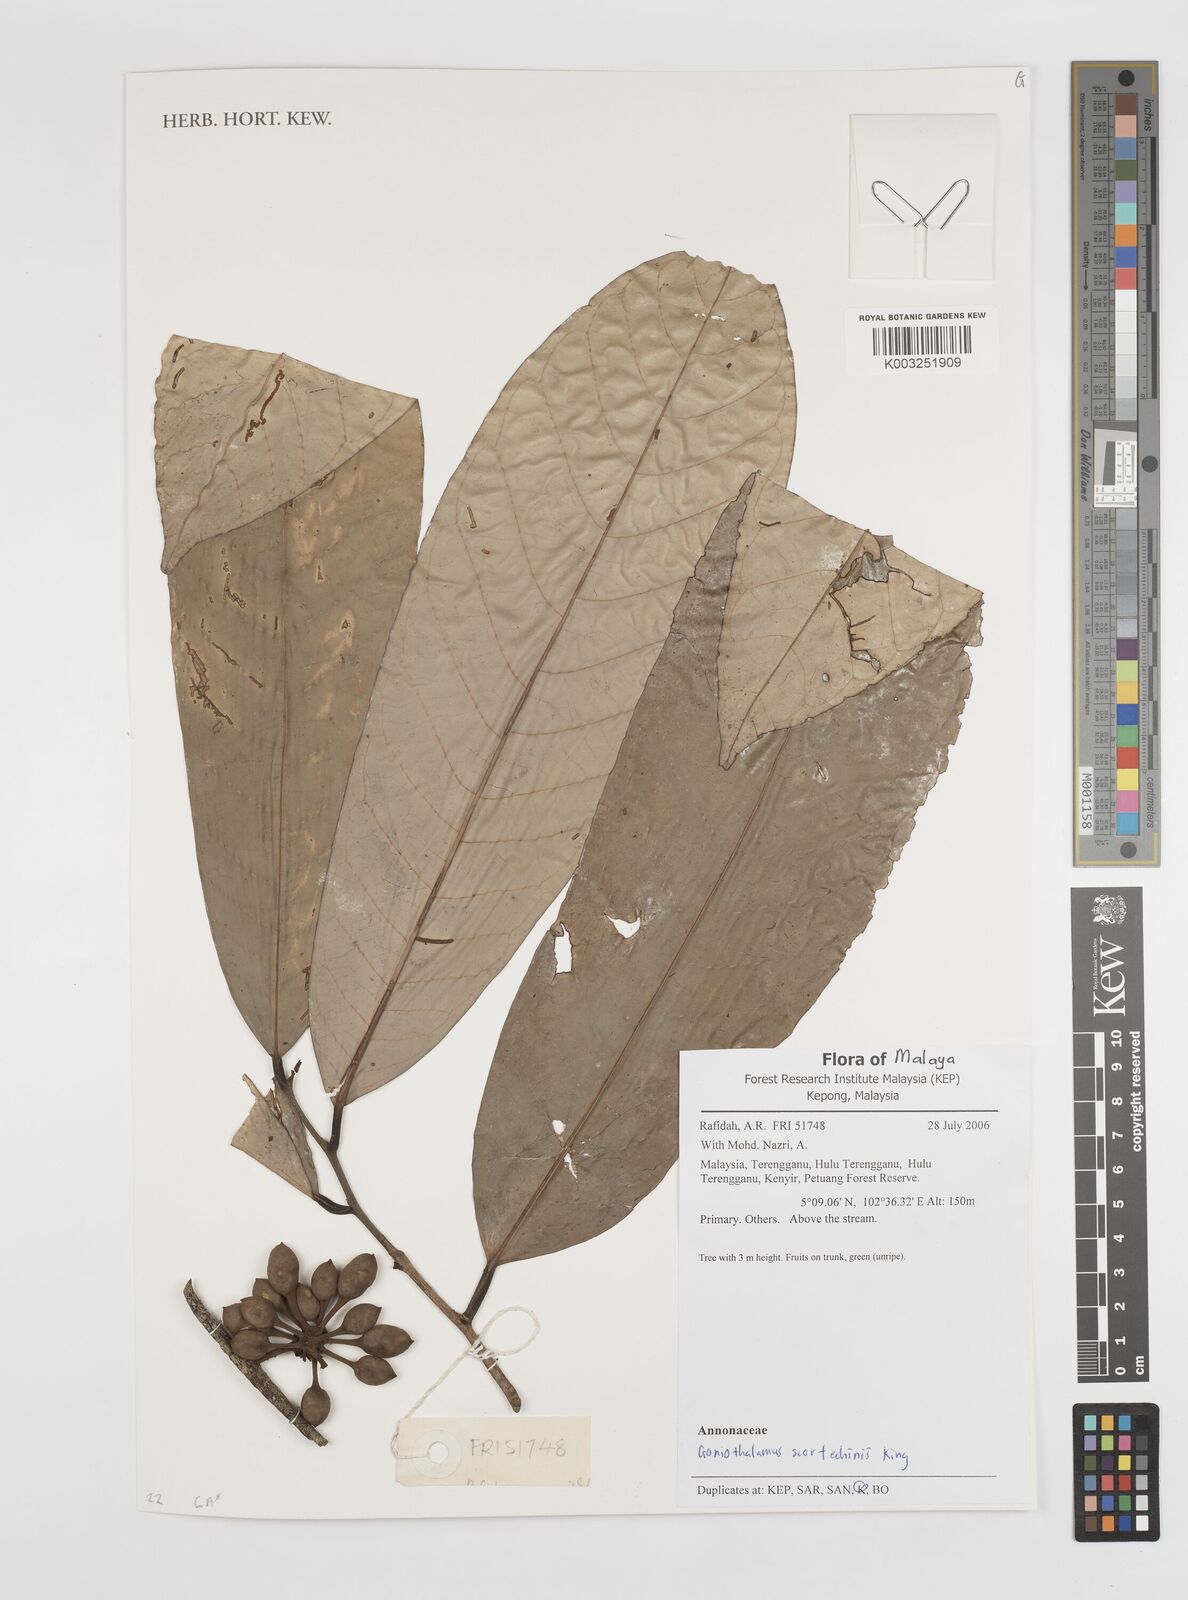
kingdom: Plantae
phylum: Tracheophyta
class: Magnoliopsida
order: Magnoliales
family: Annonaceae
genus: Goniothalamus
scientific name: Goniothalamus scortechinii
